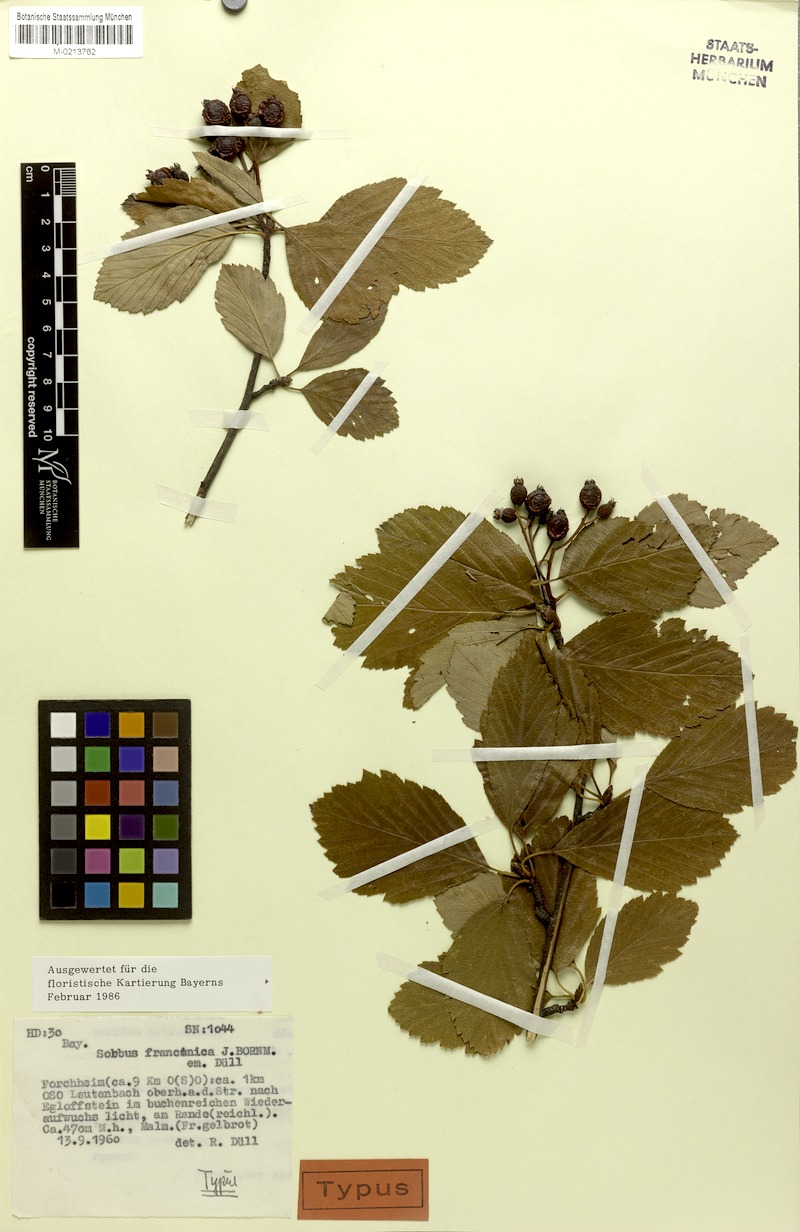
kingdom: Plantae
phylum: Tracheophyta
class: Magnoliopsida
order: Rosales
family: Rosaceae
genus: Karpatiosorbus
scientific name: Karpatiosorbus franconica
